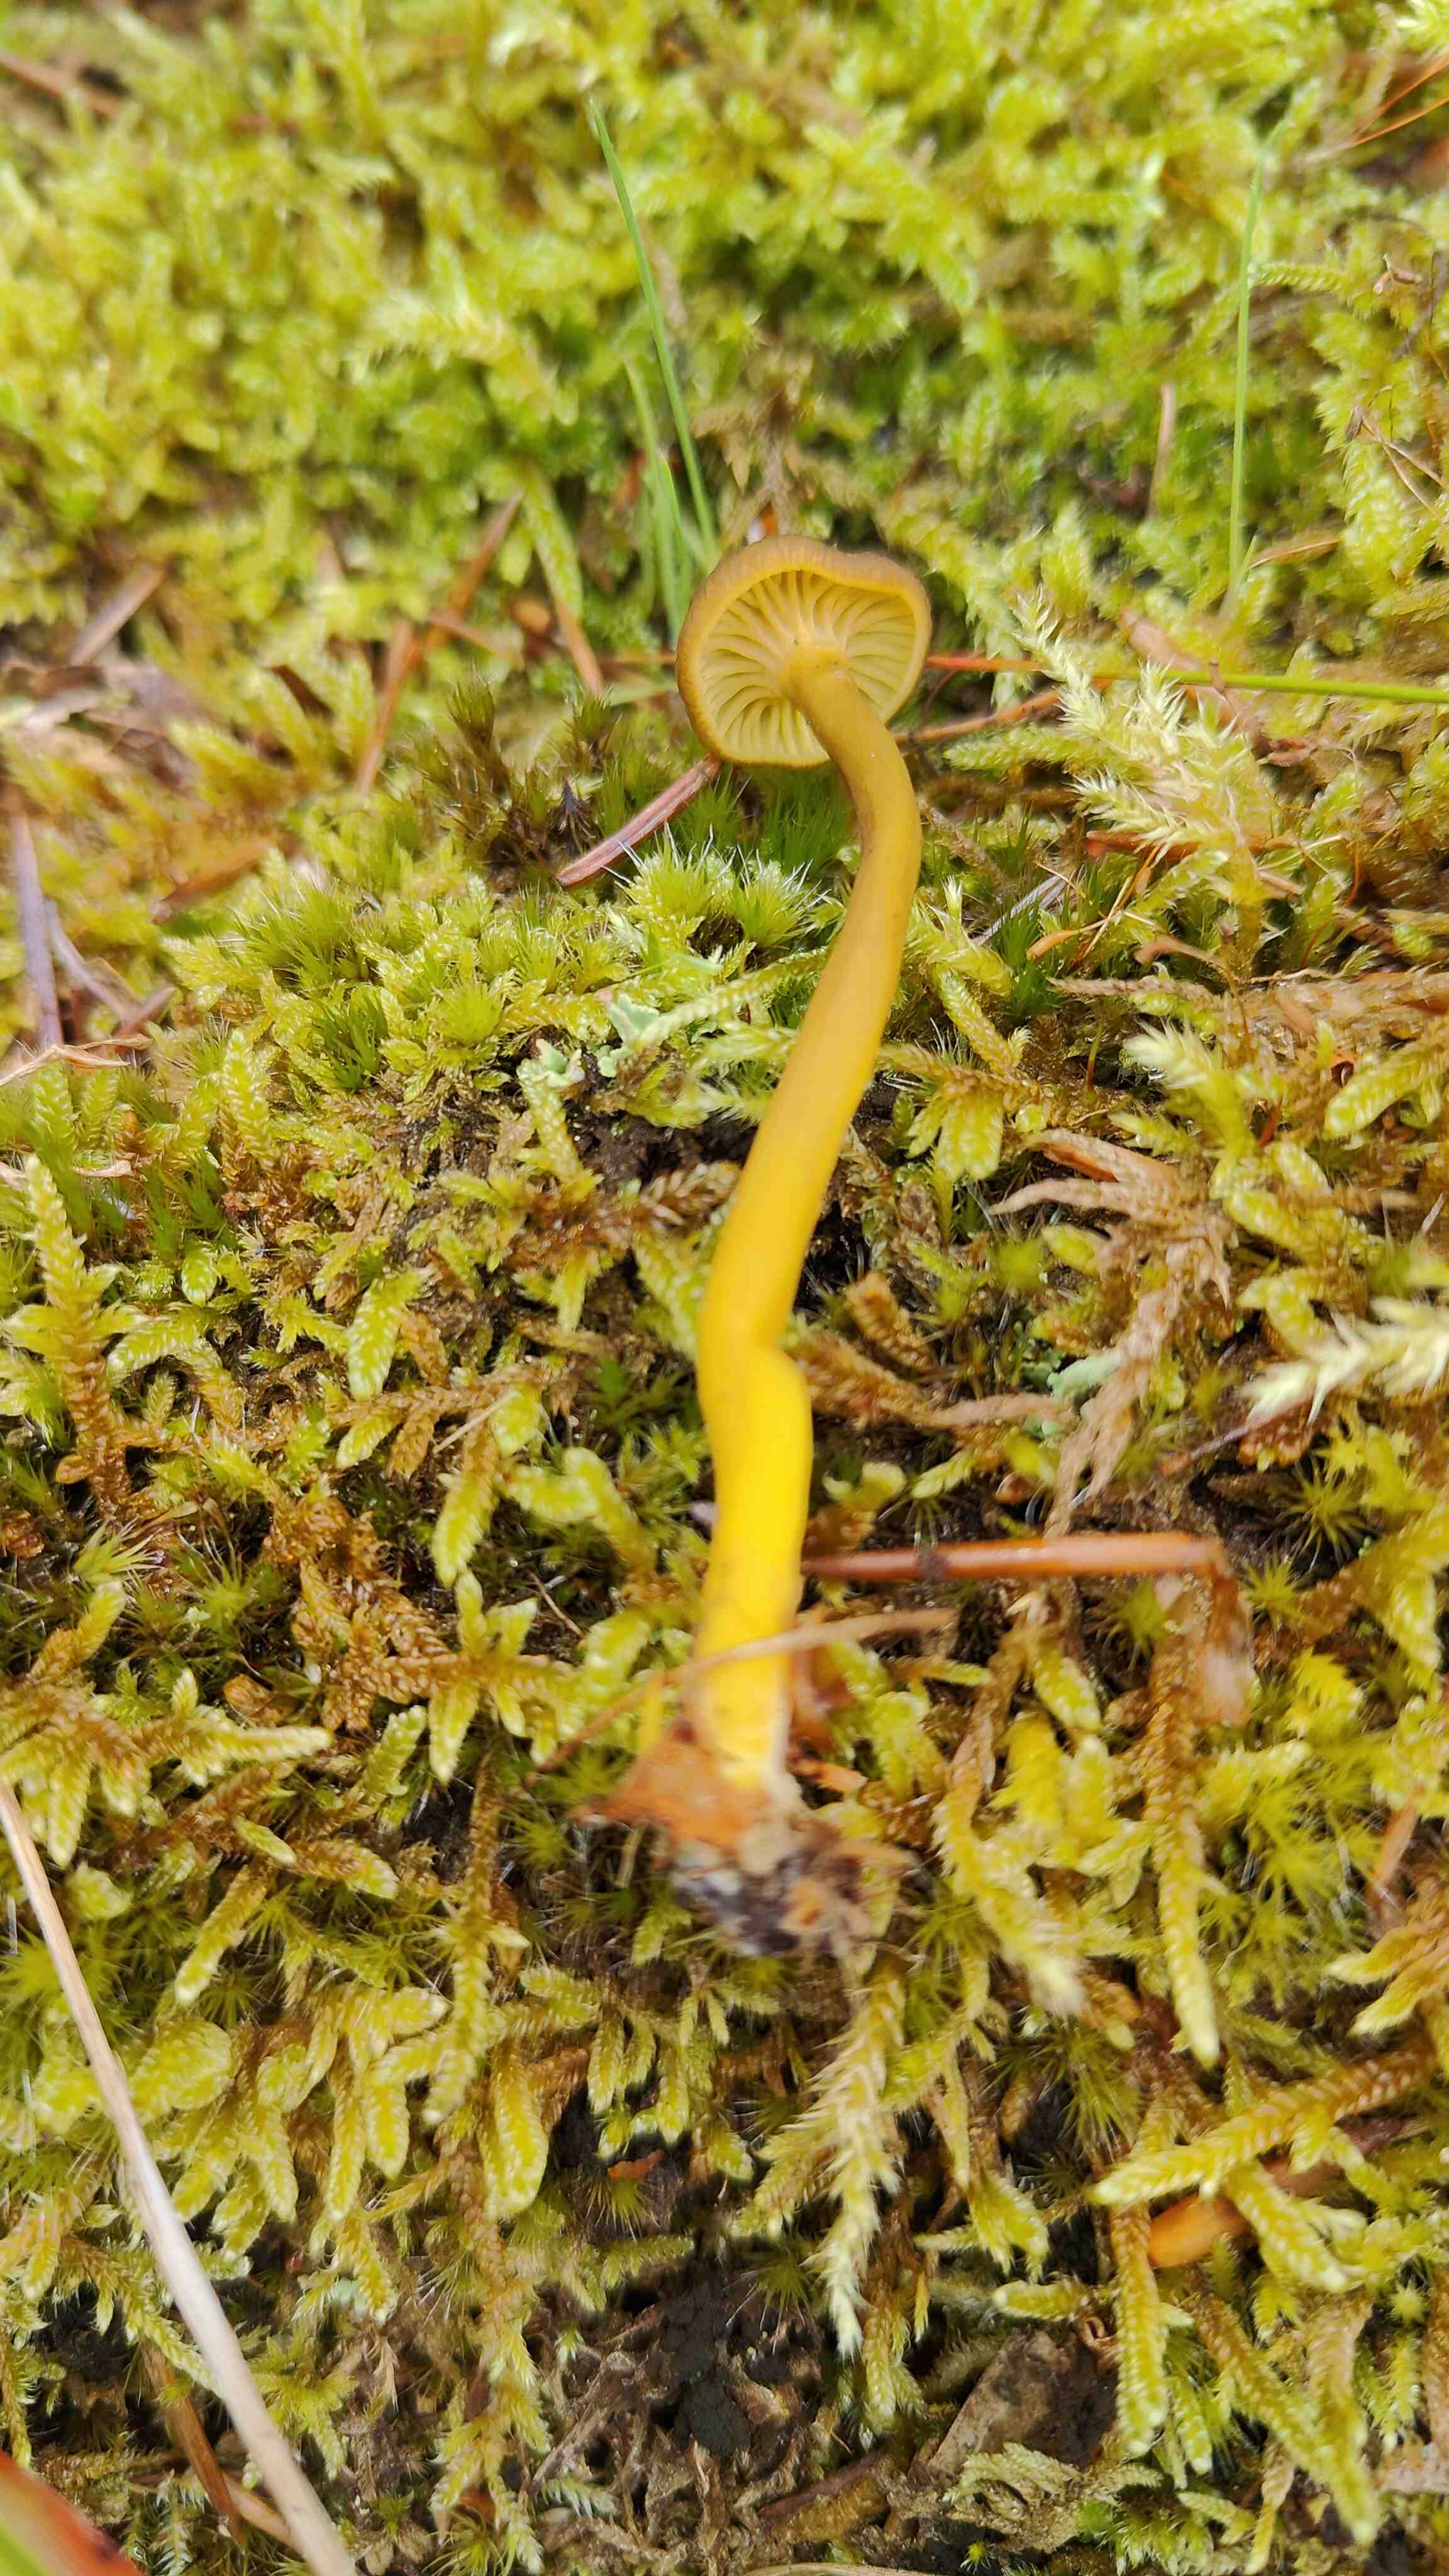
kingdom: Fungi
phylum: Basidiomycota
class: Agaricomycetes
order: Cantharellales
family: Hydnaceae
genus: Craterellus
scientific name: Craterellus tubaeformis
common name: tragt-kantarel
